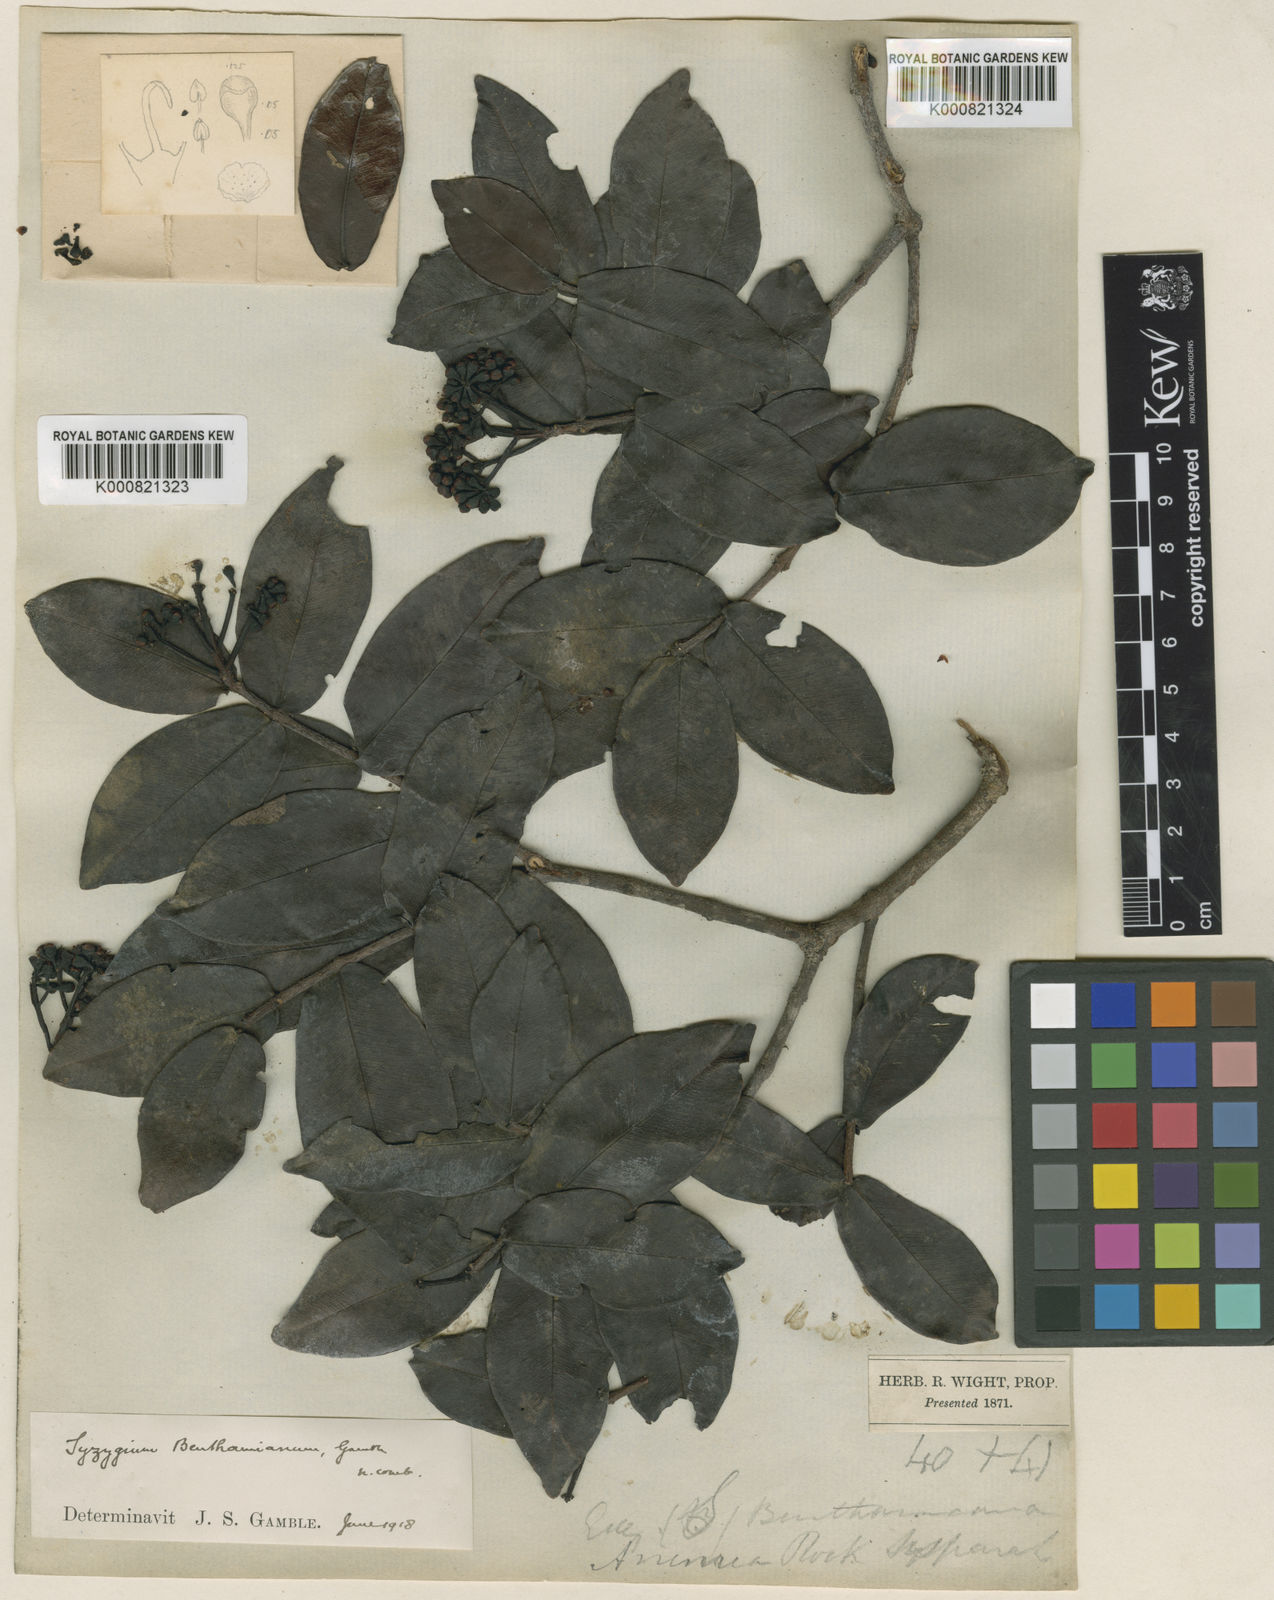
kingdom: Plantae
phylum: Tracheophyta
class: Magnoliopsida
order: Myrtales
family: Myrtaceae
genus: Syzygium
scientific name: Syzygium densiflorum
